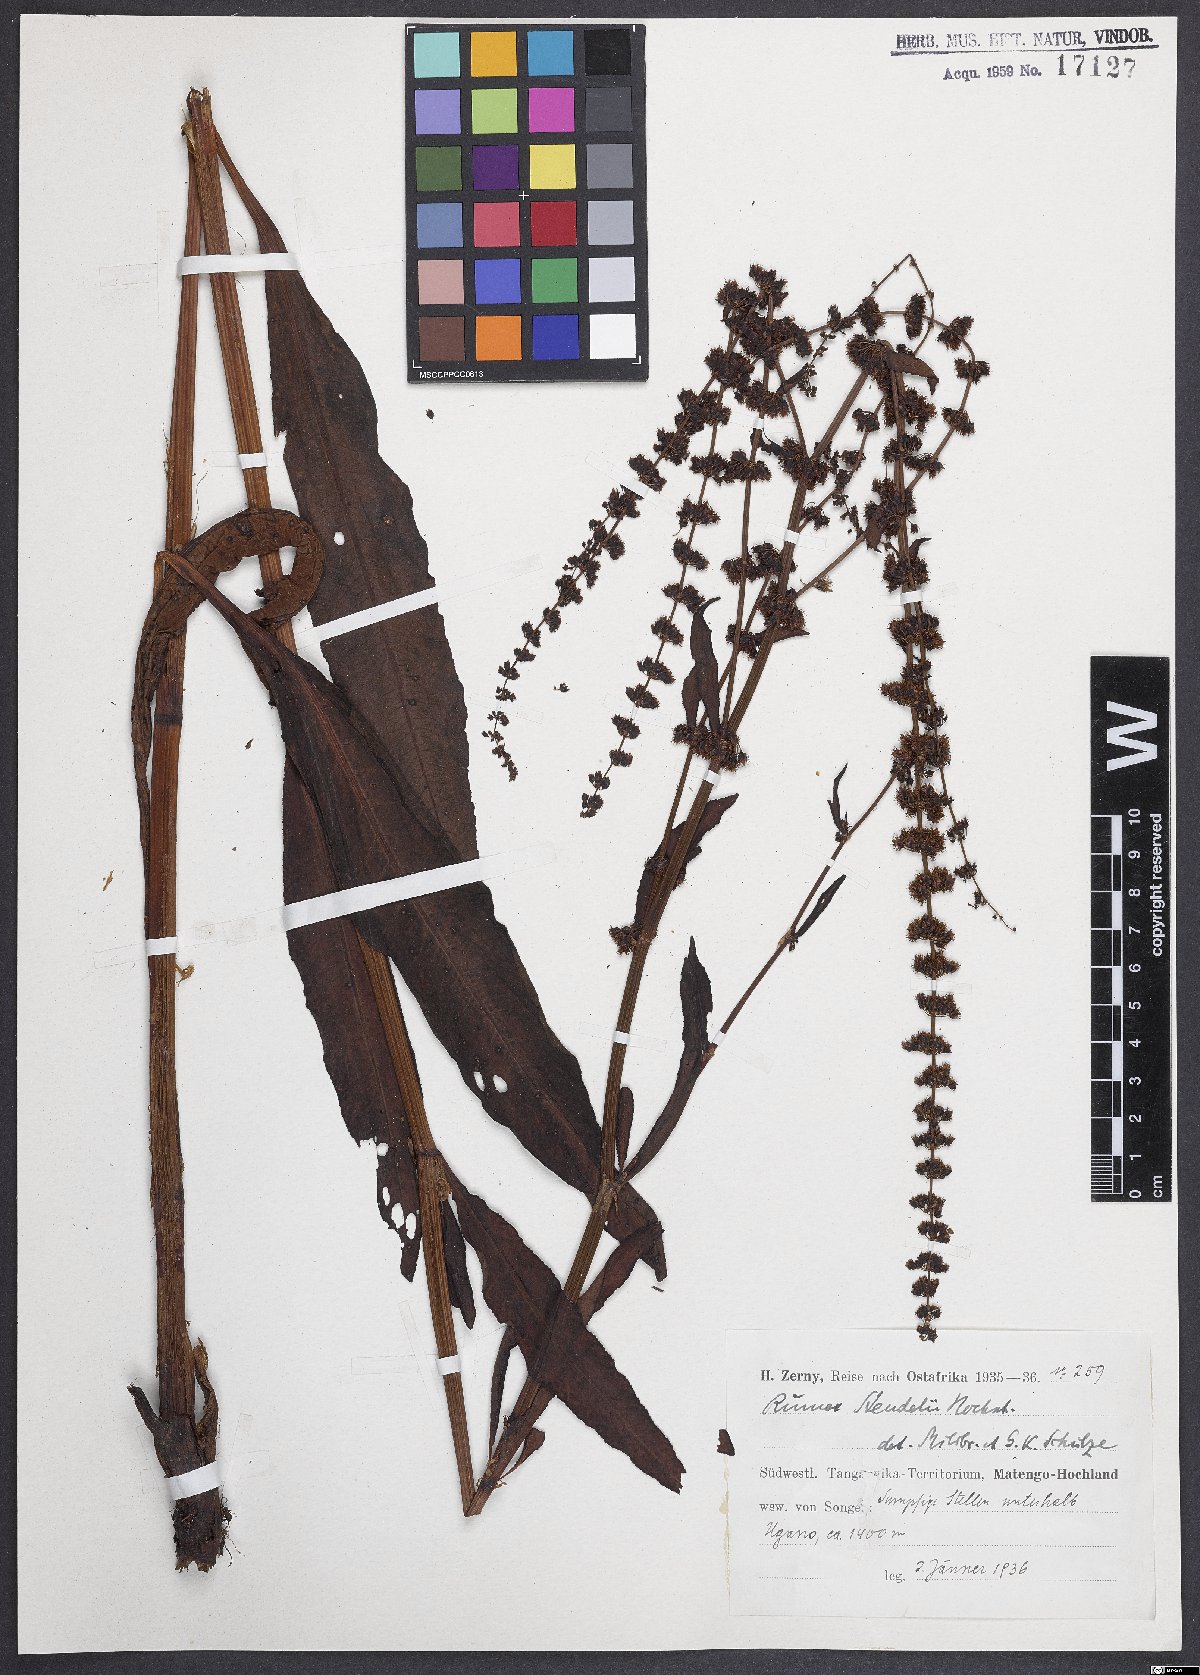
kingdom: Plantae
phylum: Tracheophyta
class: Magnoliopsida
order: Caryophyllales
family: Polygonaceae
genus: Rumex
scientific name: Rumex steudelii
